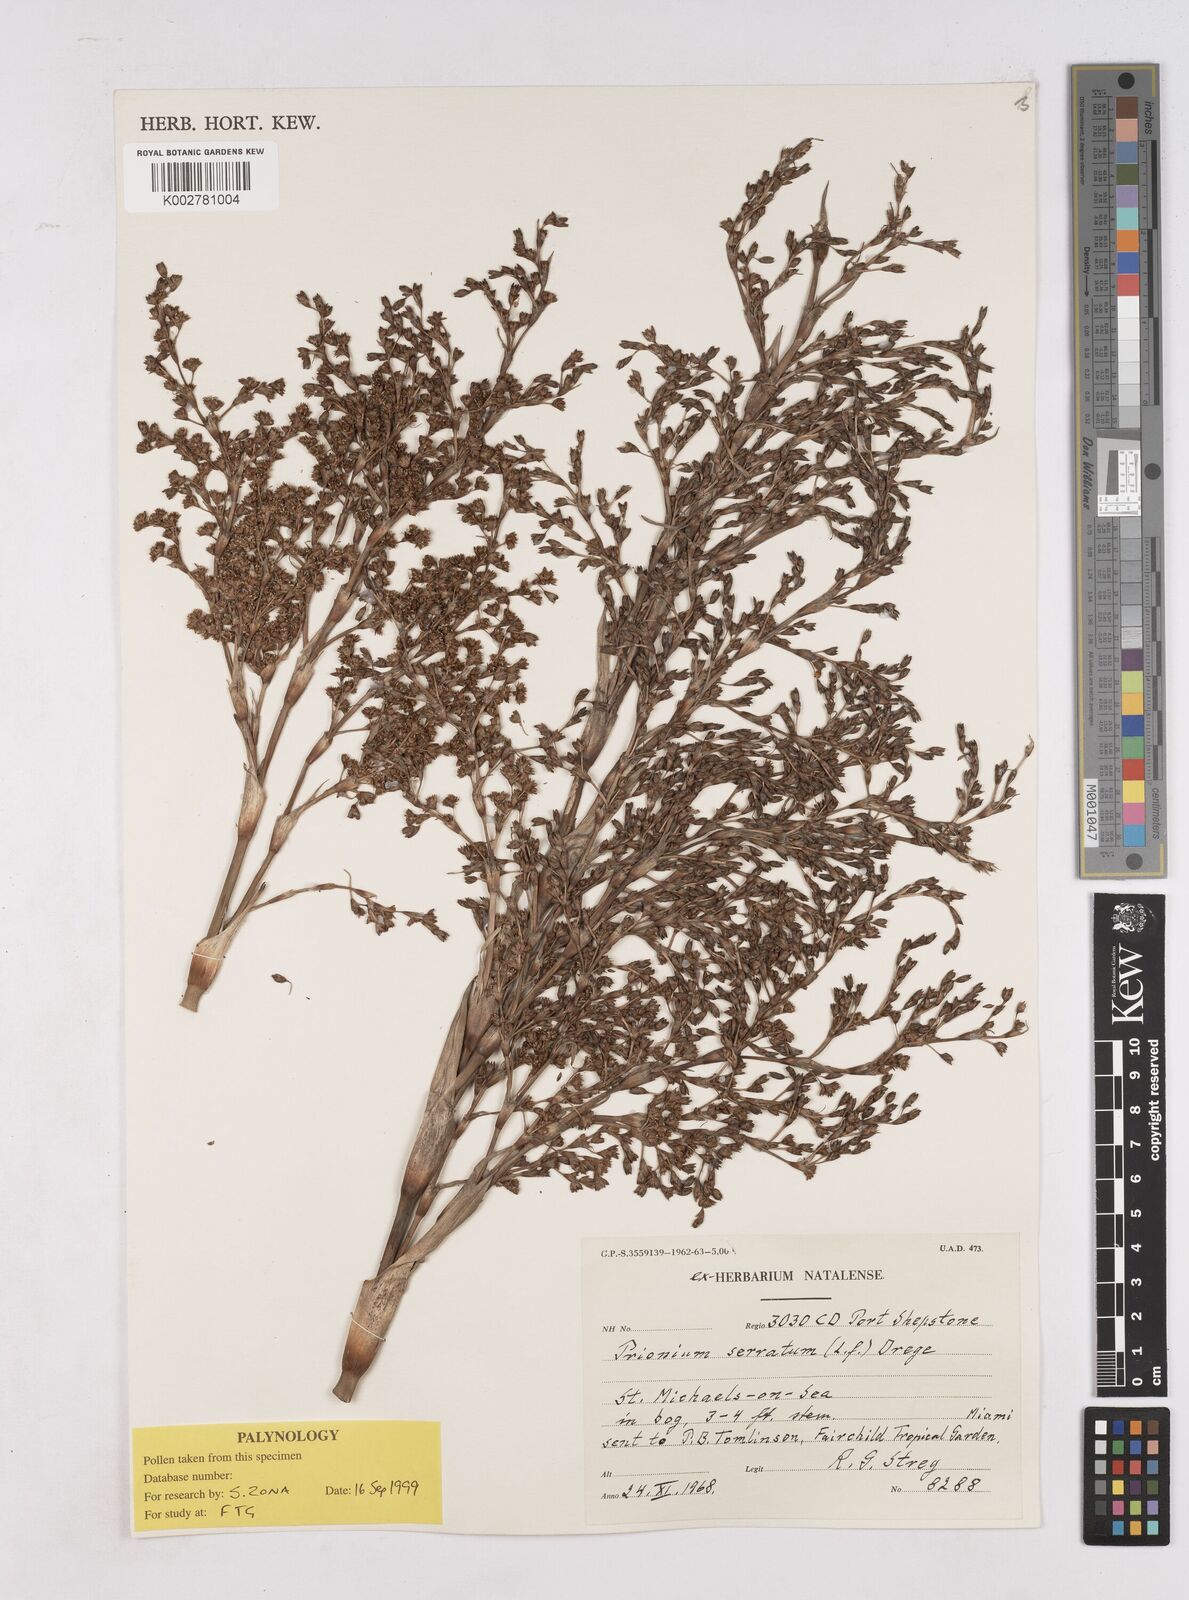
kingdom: Plantae
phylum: Tracheophyta
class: Liliopsida
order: Poales
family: Thurniaceae
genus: Prionium
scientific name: Prionium serratum
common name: Palmiet
